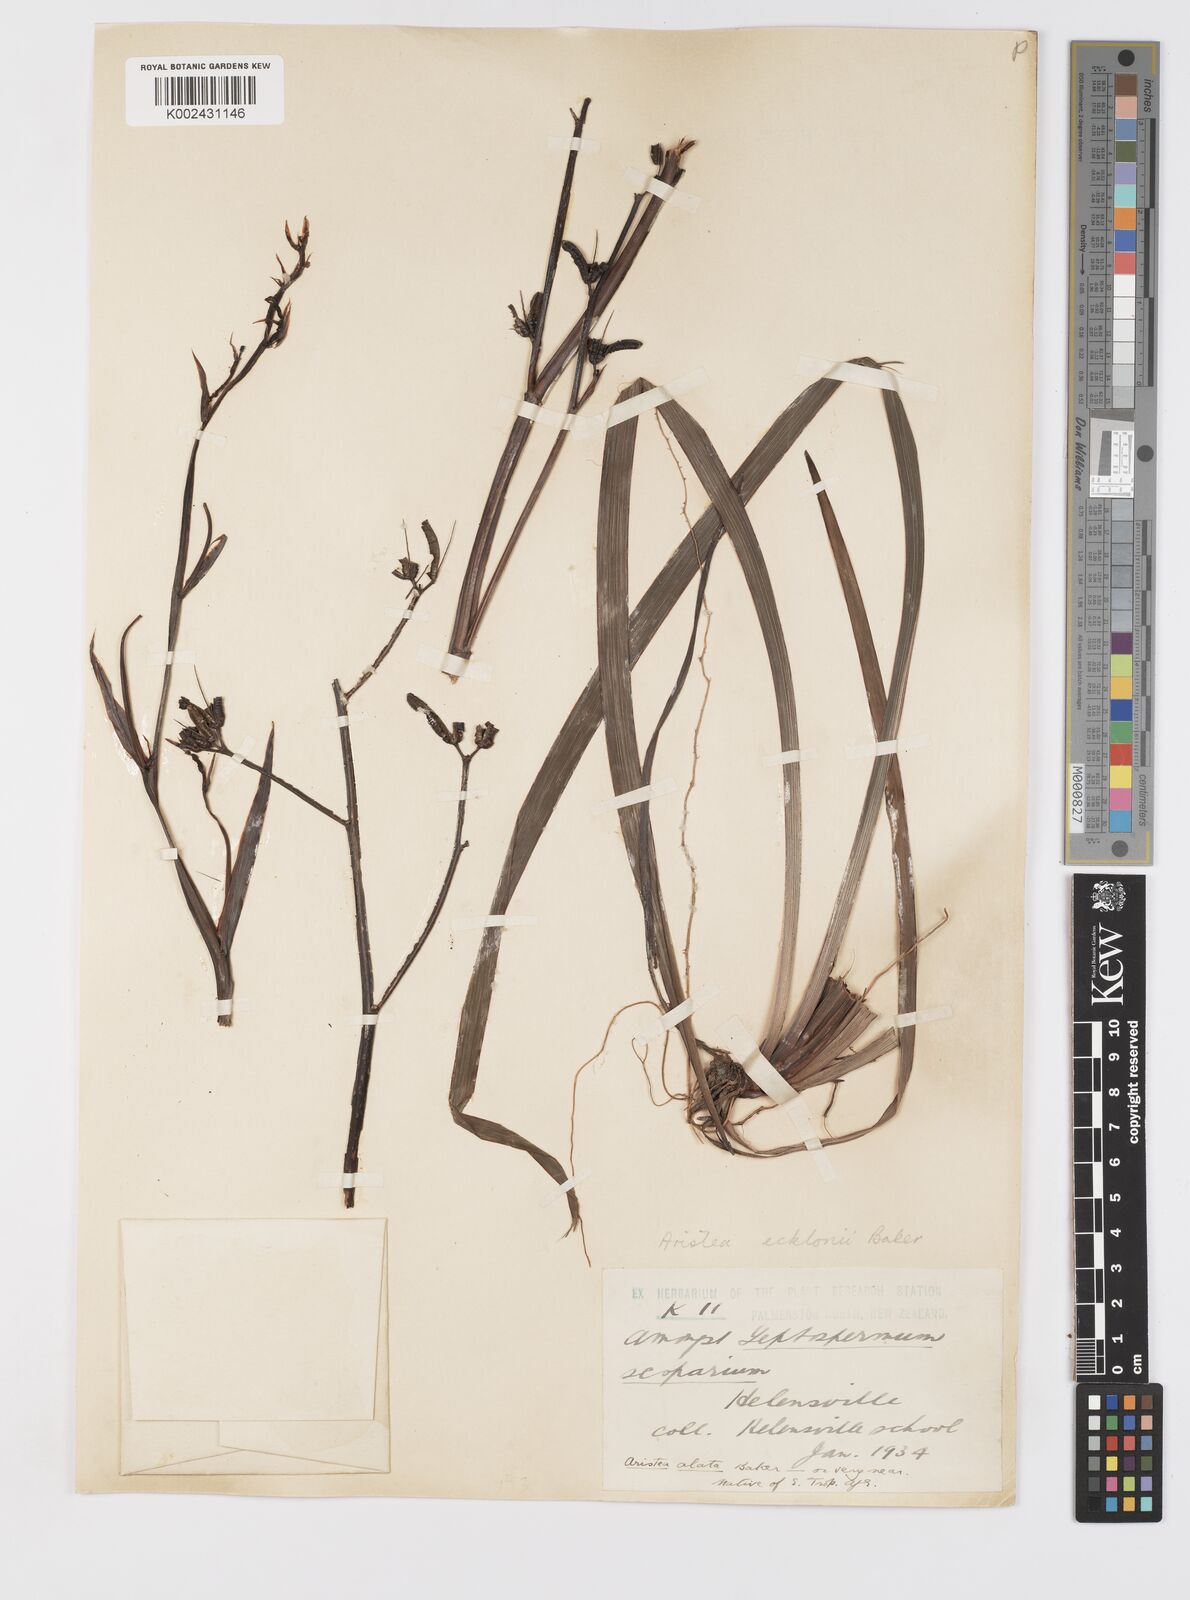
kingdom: Plantae
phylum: Tracheophyta
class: Liliopsida
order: Asparagales
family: Iridaceae
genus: Aristea
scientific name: Aristea ecklonii
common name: Blue corn-lily
